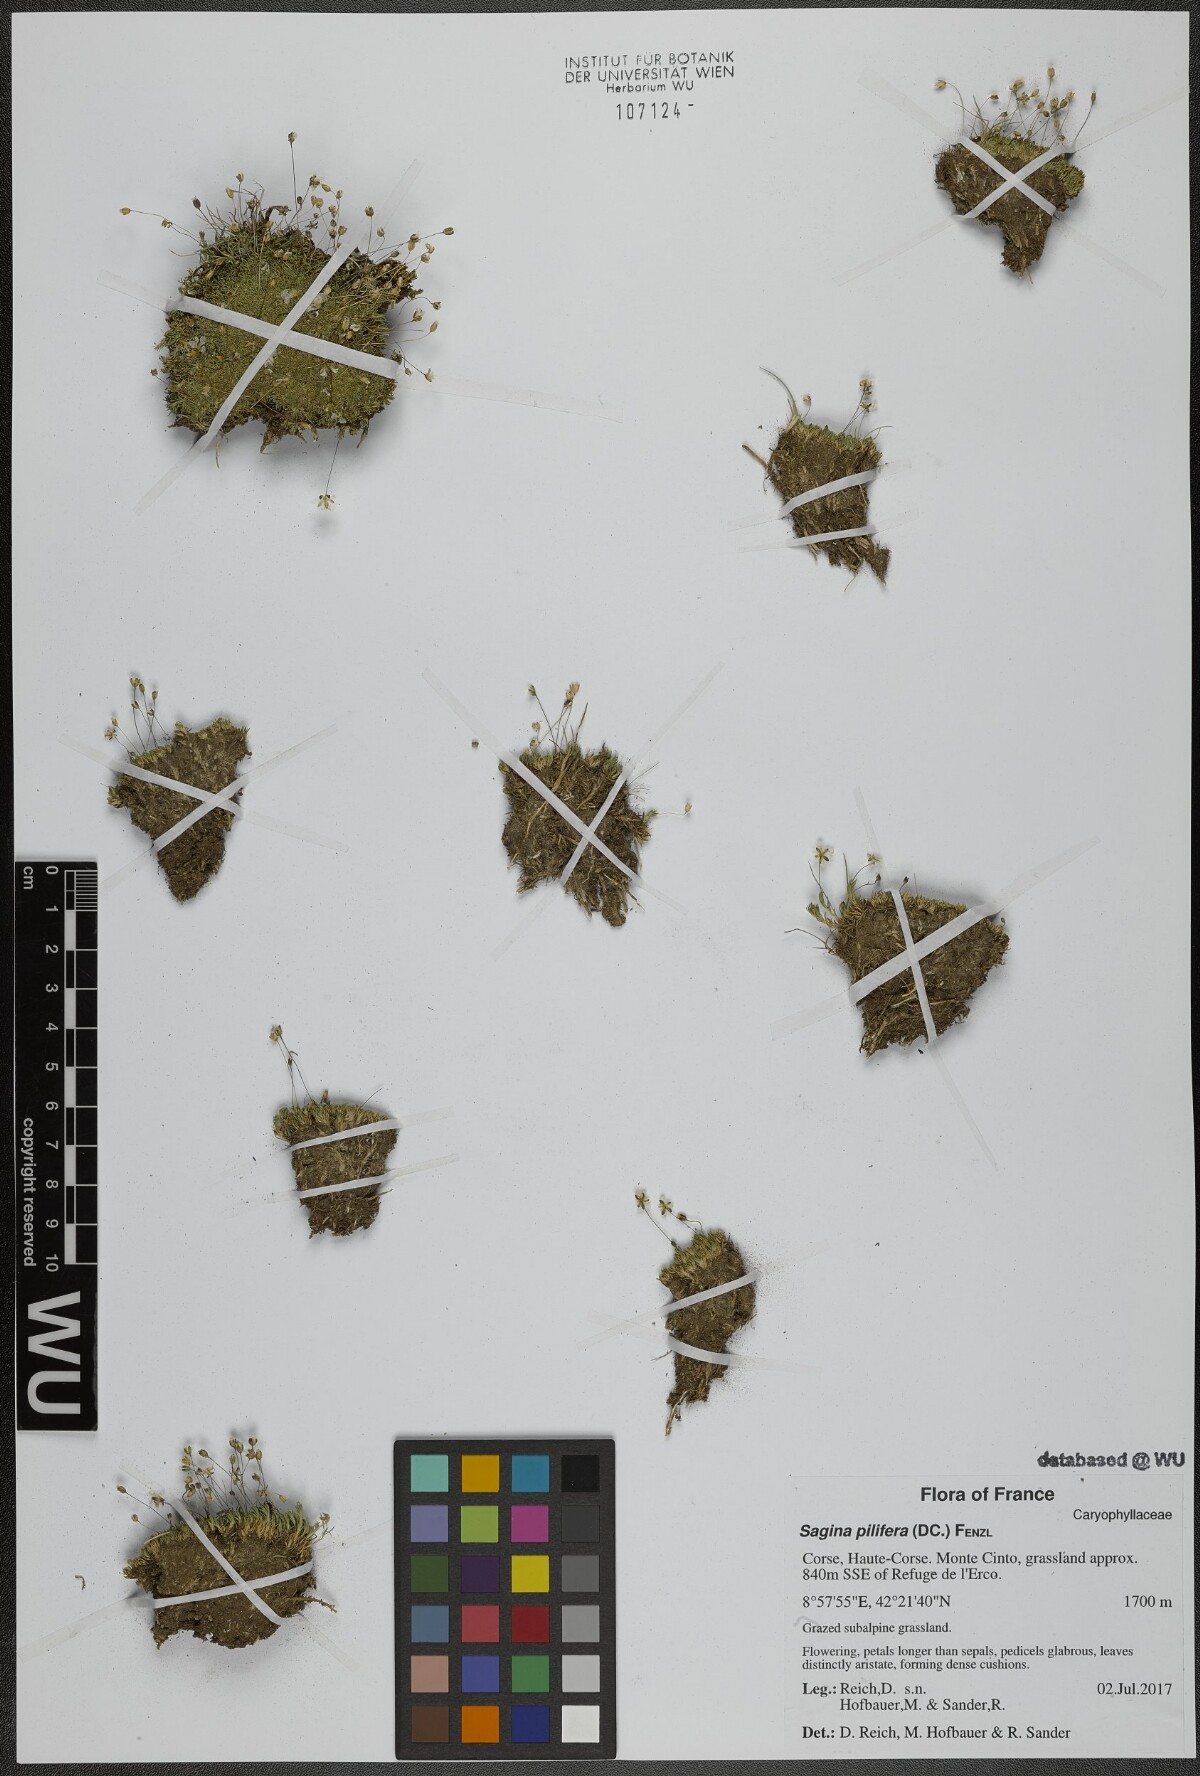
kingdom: Plantae
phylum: Tracheophyta
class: Magnoliopsida
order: Caryophyllales
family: Caryophyllaceae
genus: Sagina
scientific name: Sagina pilifera
